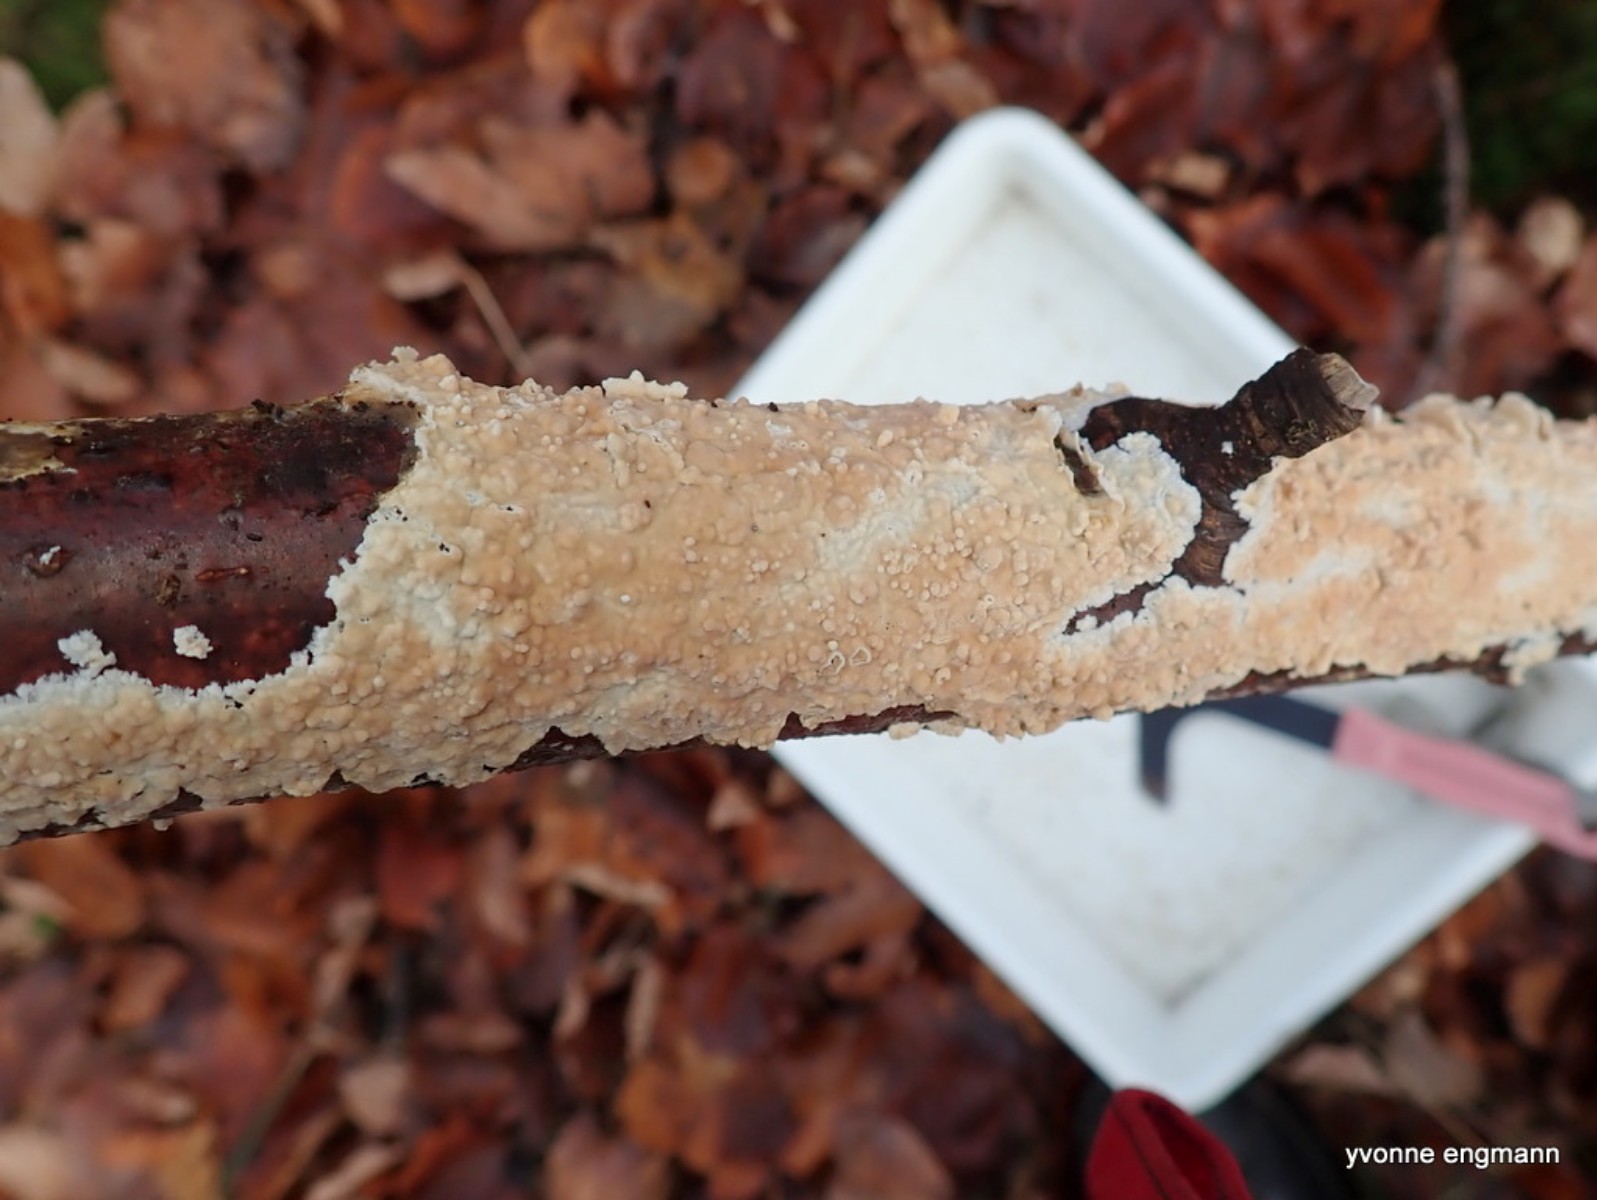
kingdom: Fungi
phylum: Basidiomycota
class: Agaricomycetes
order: Agaricales
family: Physalacriaceae
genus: Cylindrobasidium
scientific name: Cylindrobasidium evolvens
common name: sprækkehinde
